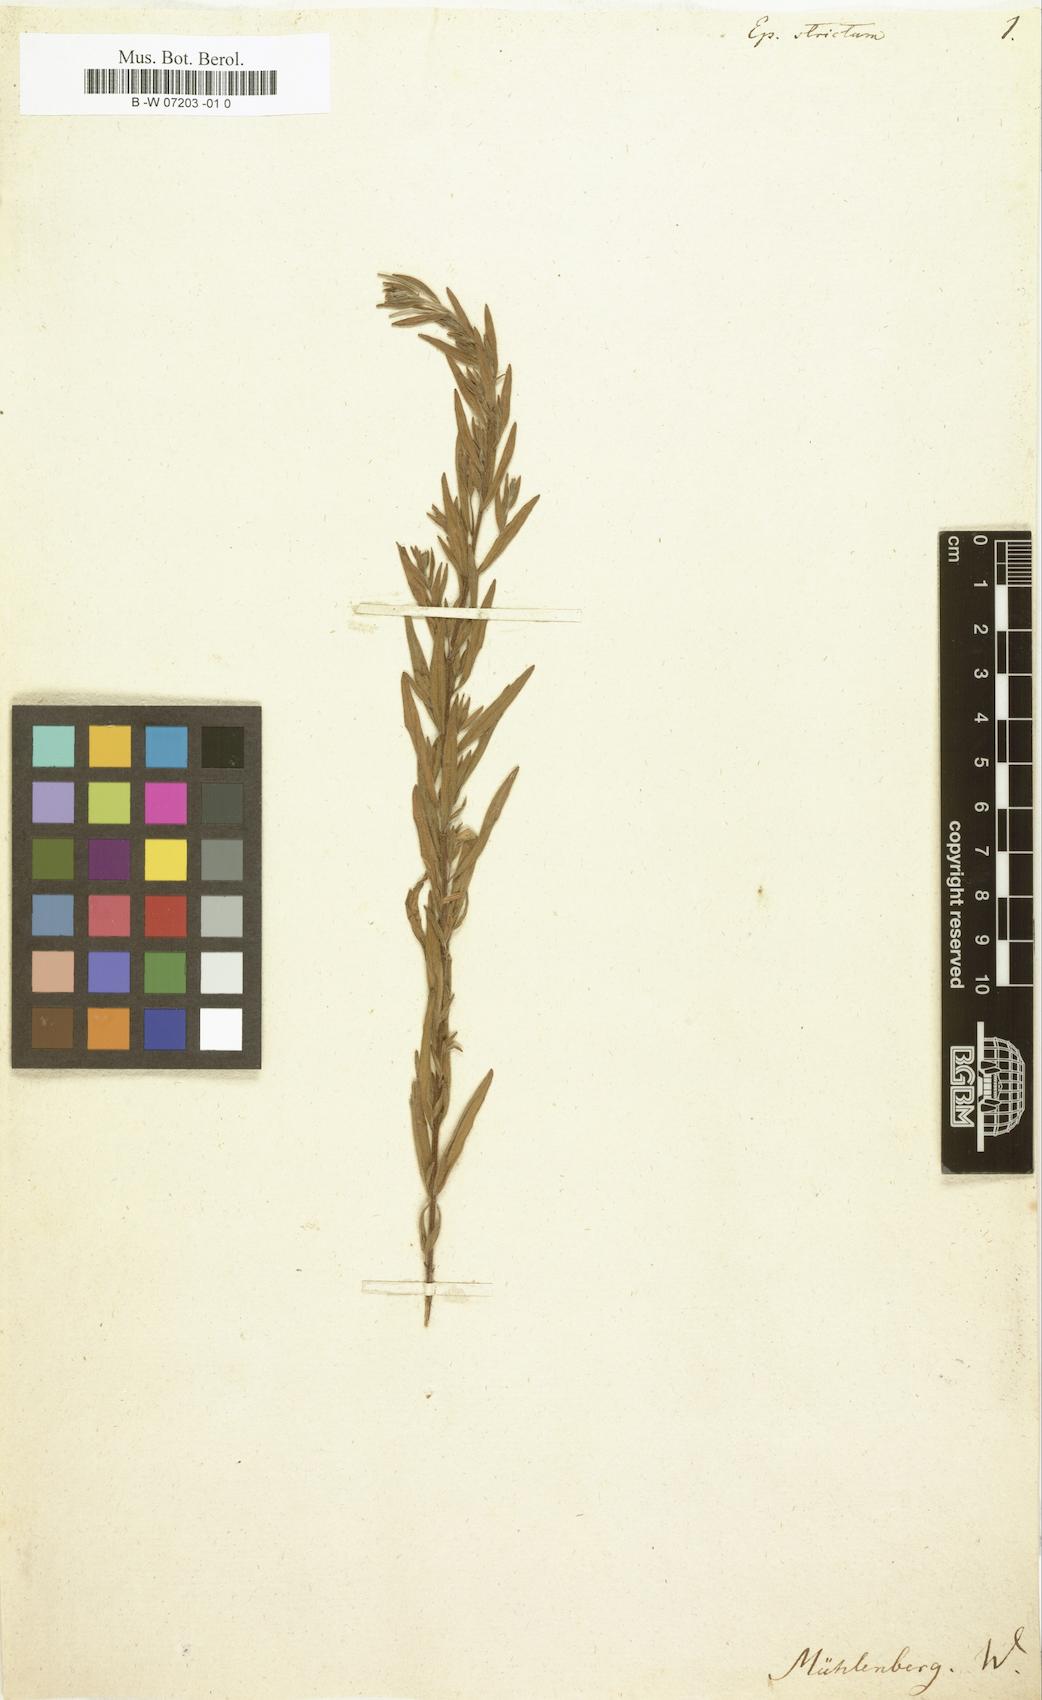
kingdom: Plantae
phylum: Tracheophyta
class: Magnoliopsida
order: Myrtales
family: Onagraceae
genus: Epilobium
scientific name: Epilobium
